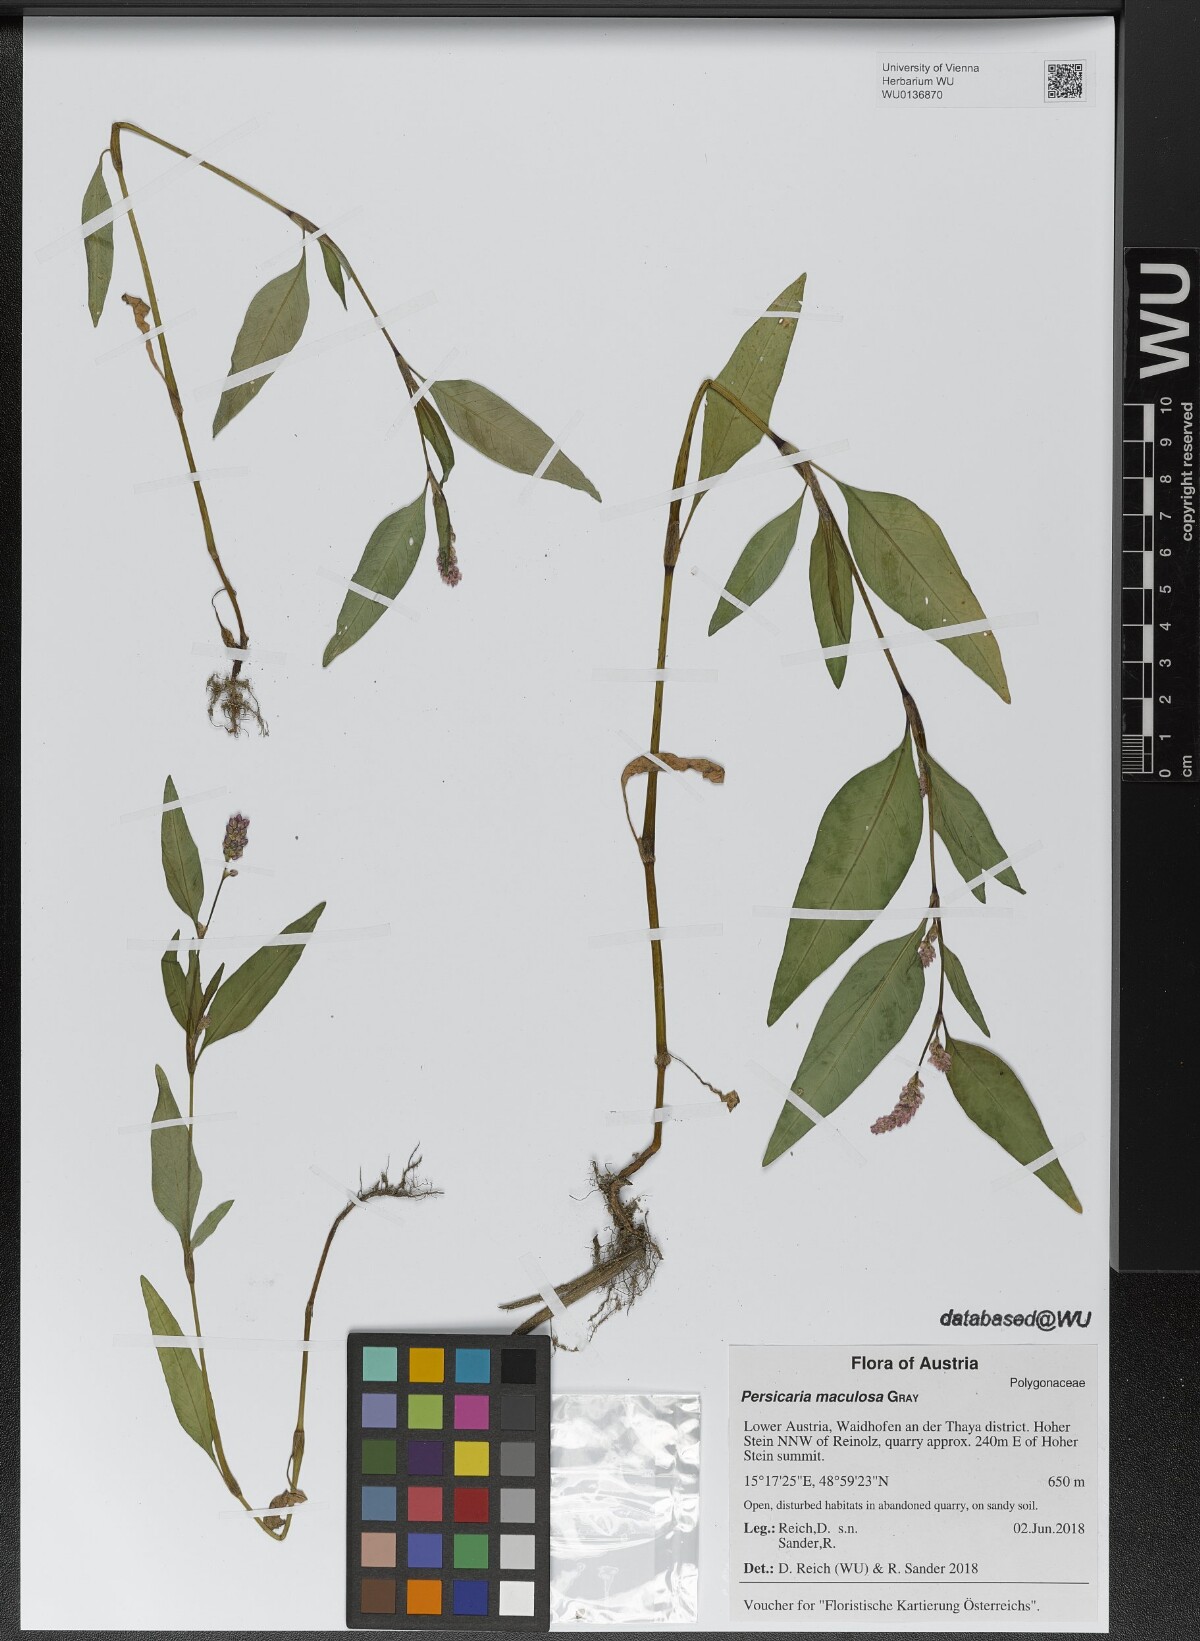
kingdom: Plantae
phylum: Tracheophyta
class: Magnoliopsida
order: Caryophyllales
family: Polygonaceae
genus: Persicaria
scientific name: Persicaria maculosa
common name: Redshank
